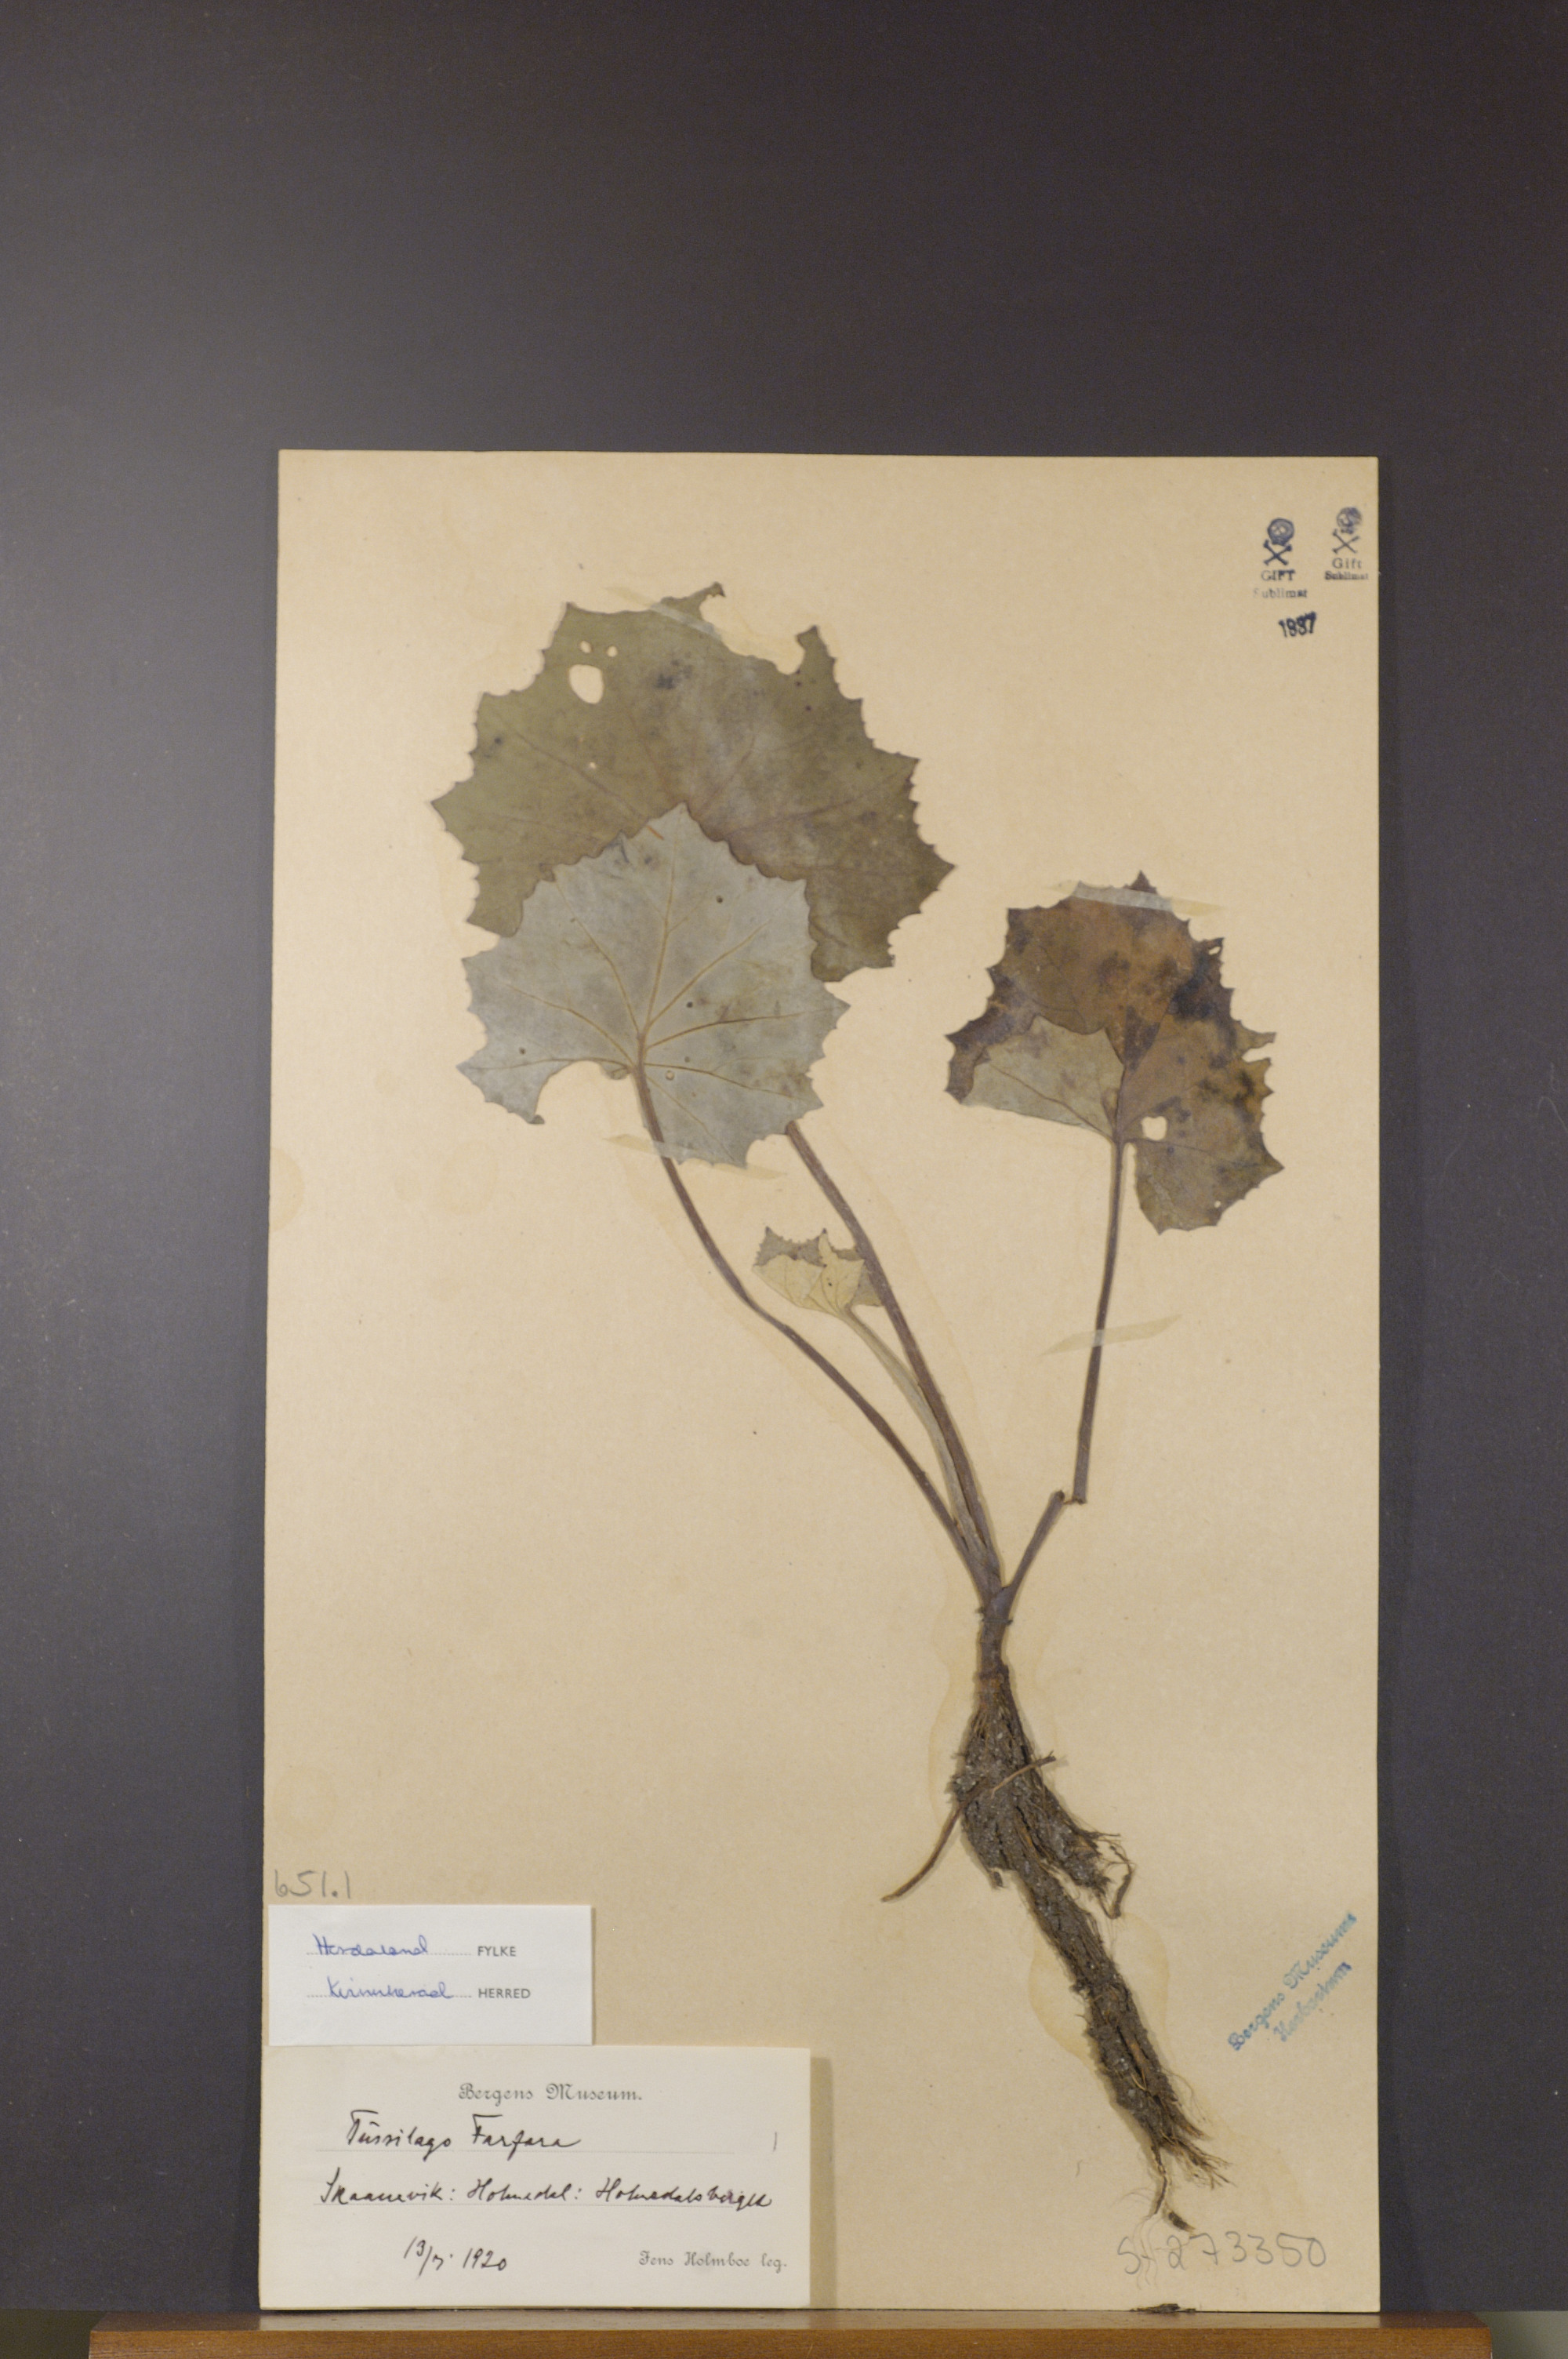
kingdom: Plantae
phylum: Tracheophyta
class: Magnoliopsida
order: Asterales
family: Asteraceae
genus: Tussilago
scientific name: Tussilago farfara
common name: Coltsfoot
